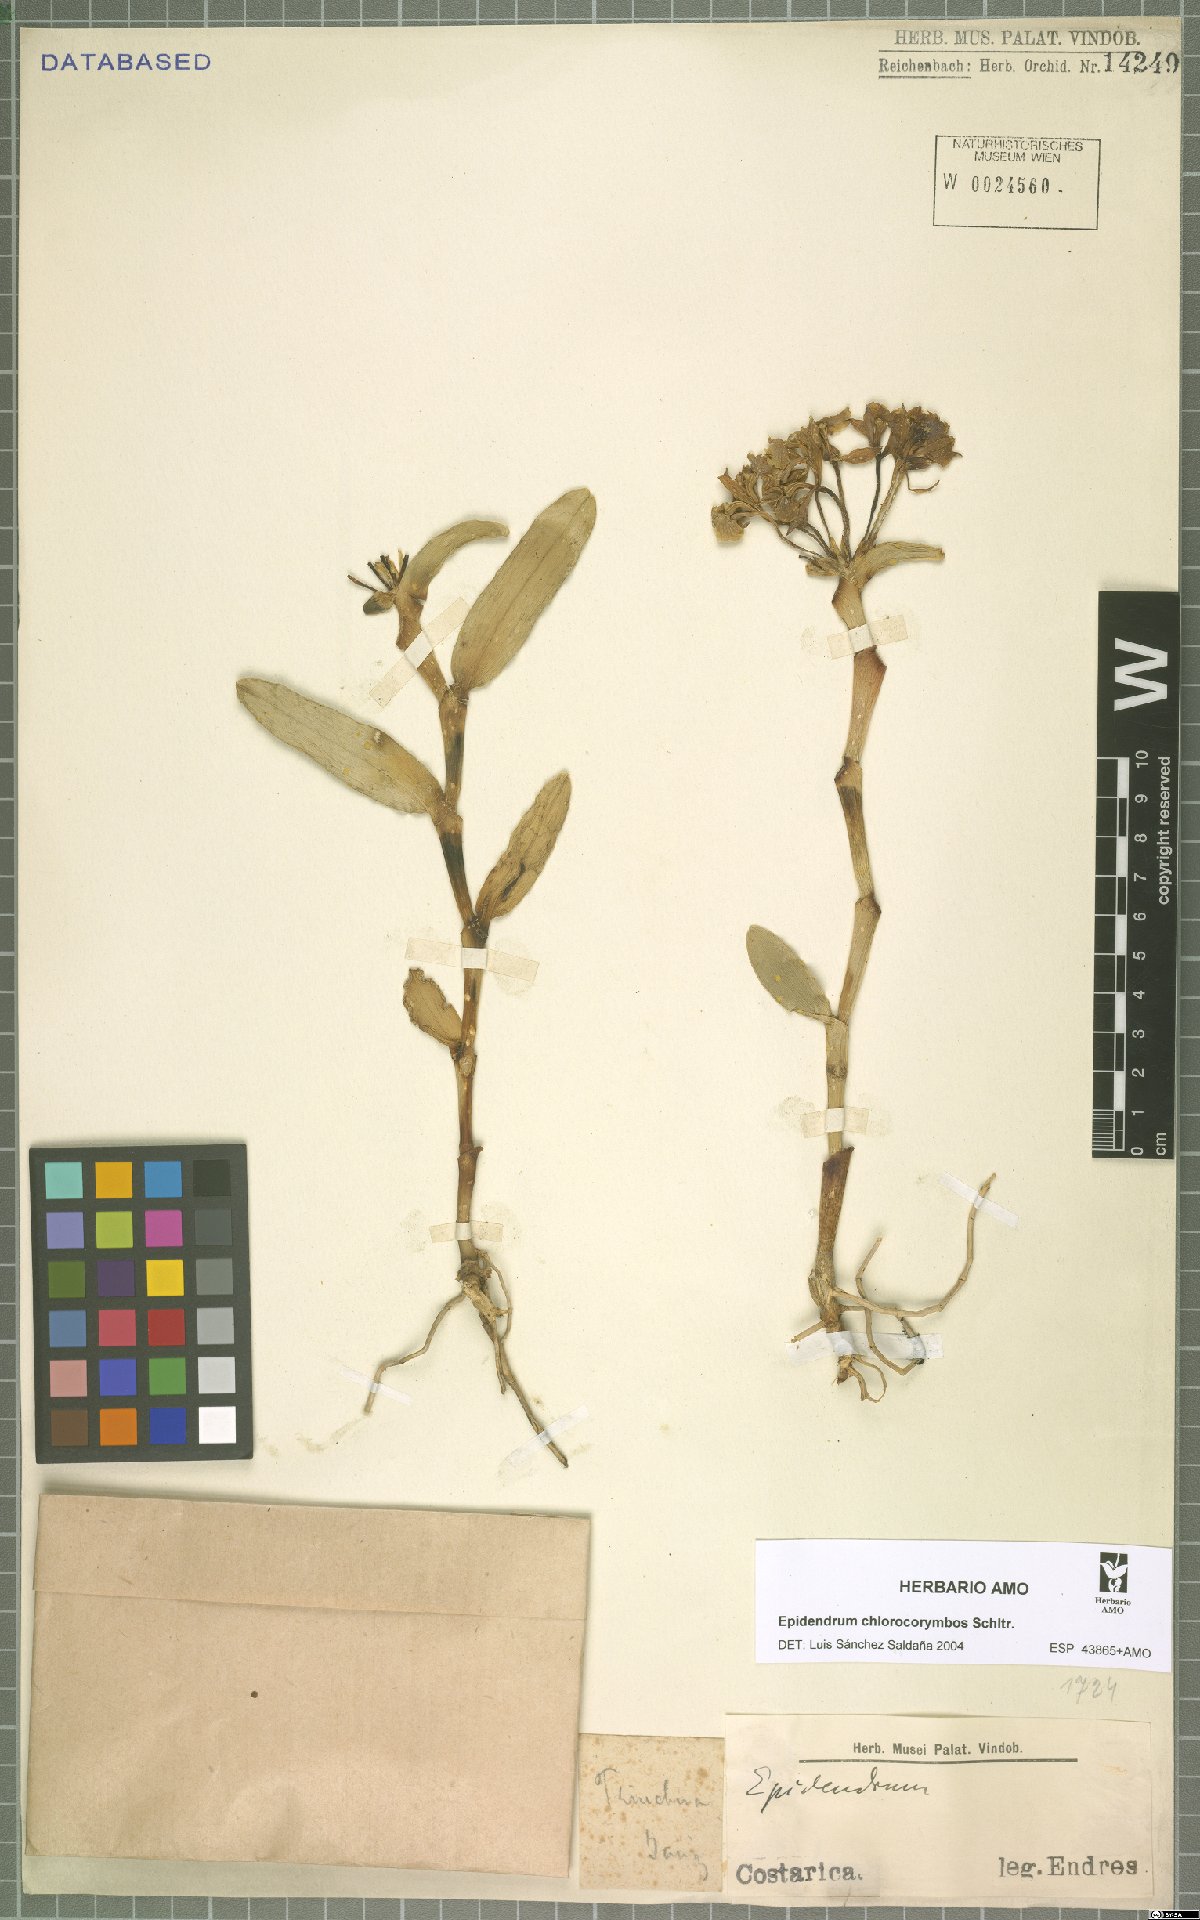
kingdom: Plantae
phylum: Tracheophyta
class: Liliopsida
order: Asparagales
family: Orchidaceae
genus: Epidendrum
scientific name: Epidendrum chlorocorymbos
